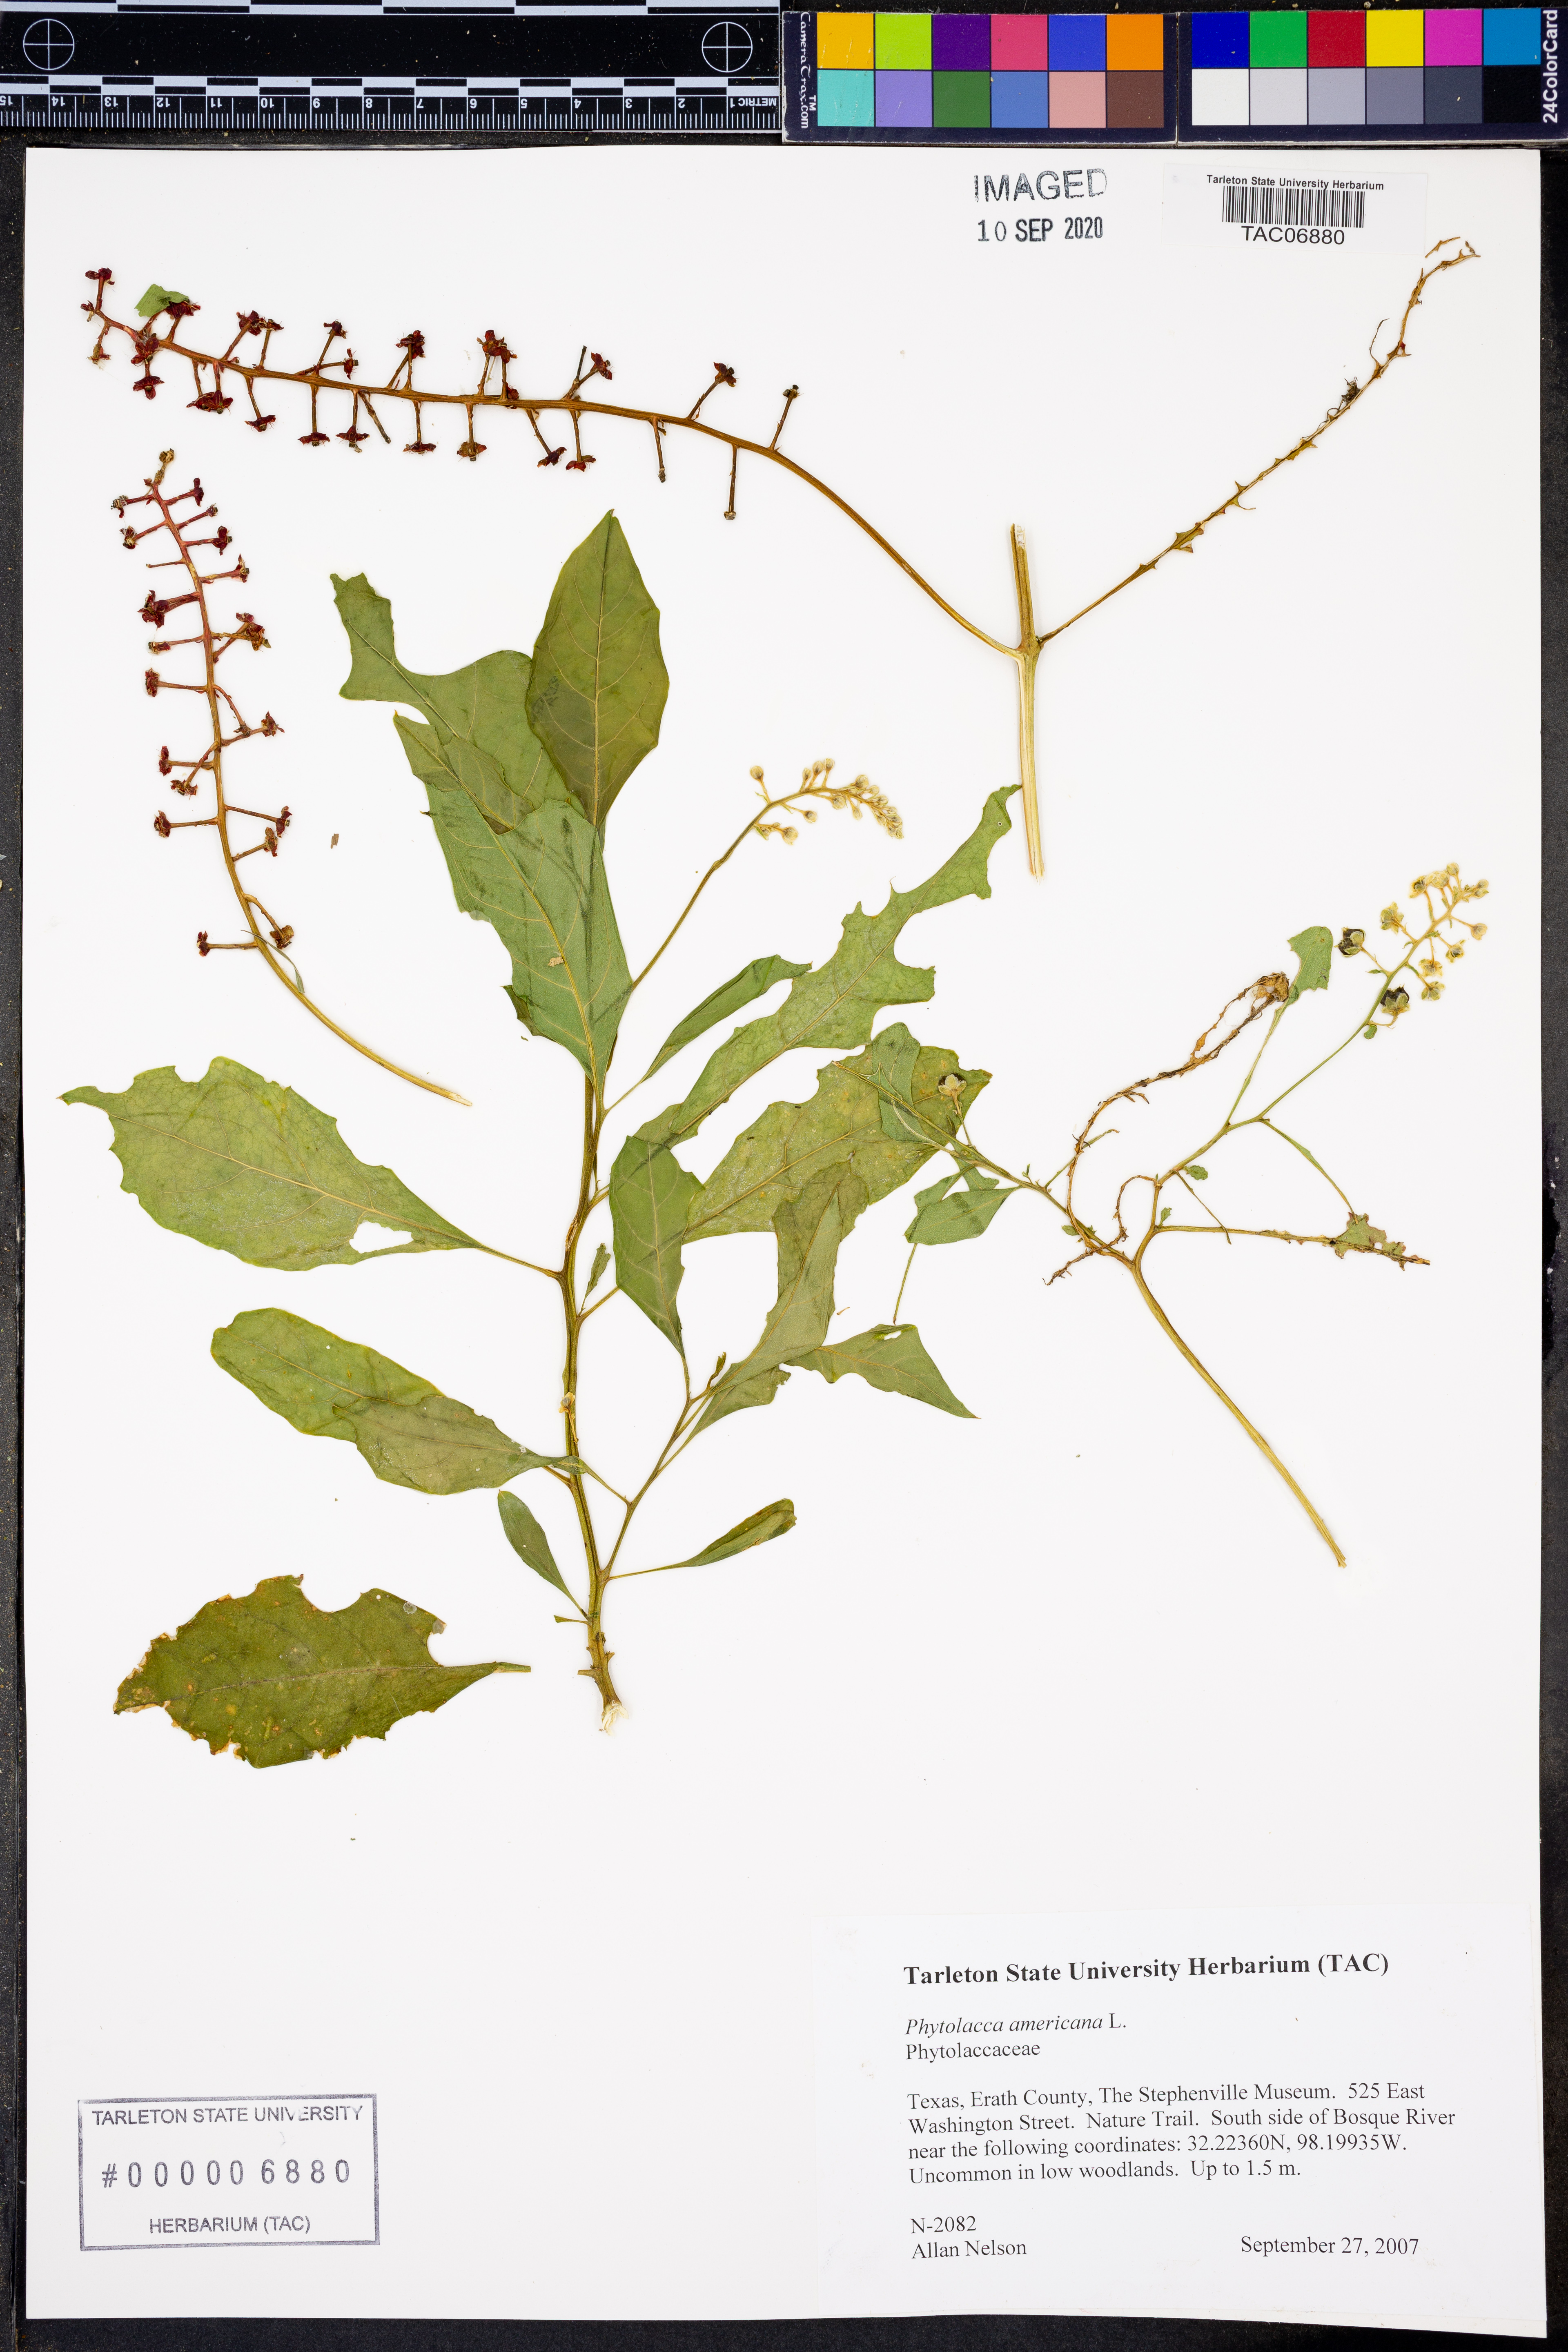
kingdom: Plantae
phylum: Tracheophyta
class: Magnoliopsida
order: Caryophyllales
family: Phytolaccaceae
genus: Phytolacca
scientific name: Phytolacca americana
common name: American pokeweed
